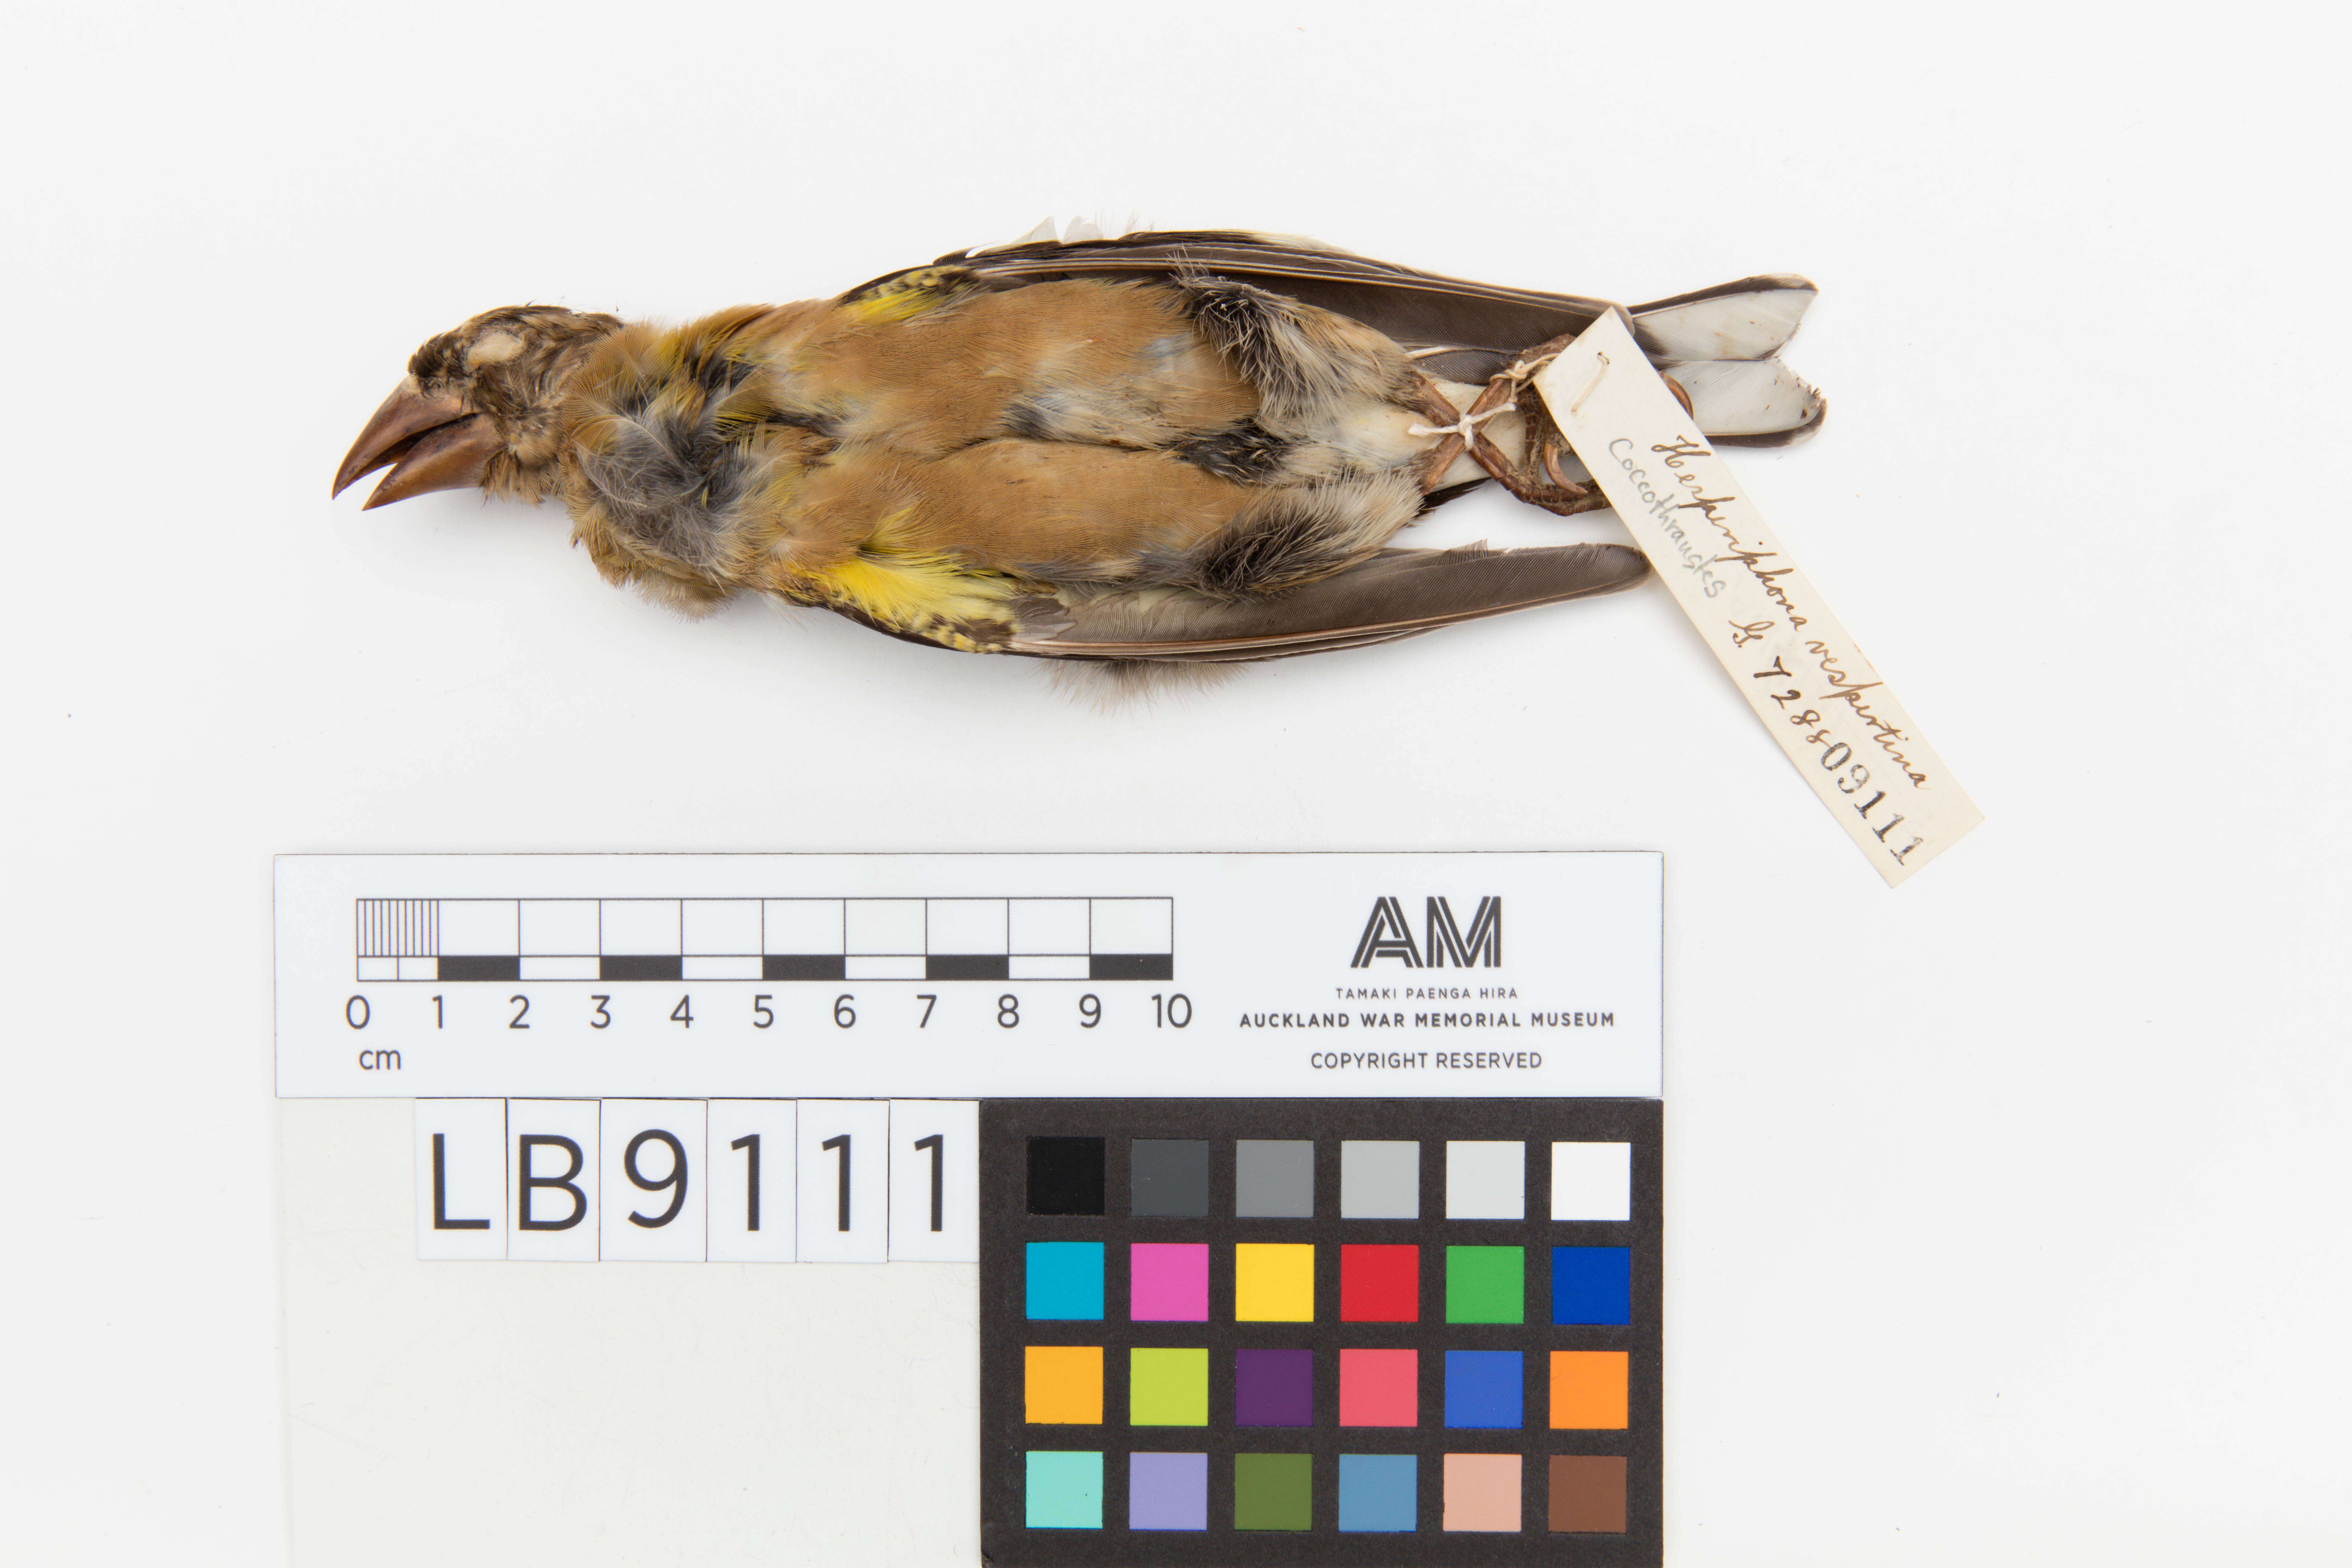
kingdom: Animalia
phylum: Chordata
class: Aves
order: Passeriformes
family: Fringillidae
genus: Hesperiphona
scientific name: Hesperiphona vespertina
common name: Evening grosbeak
